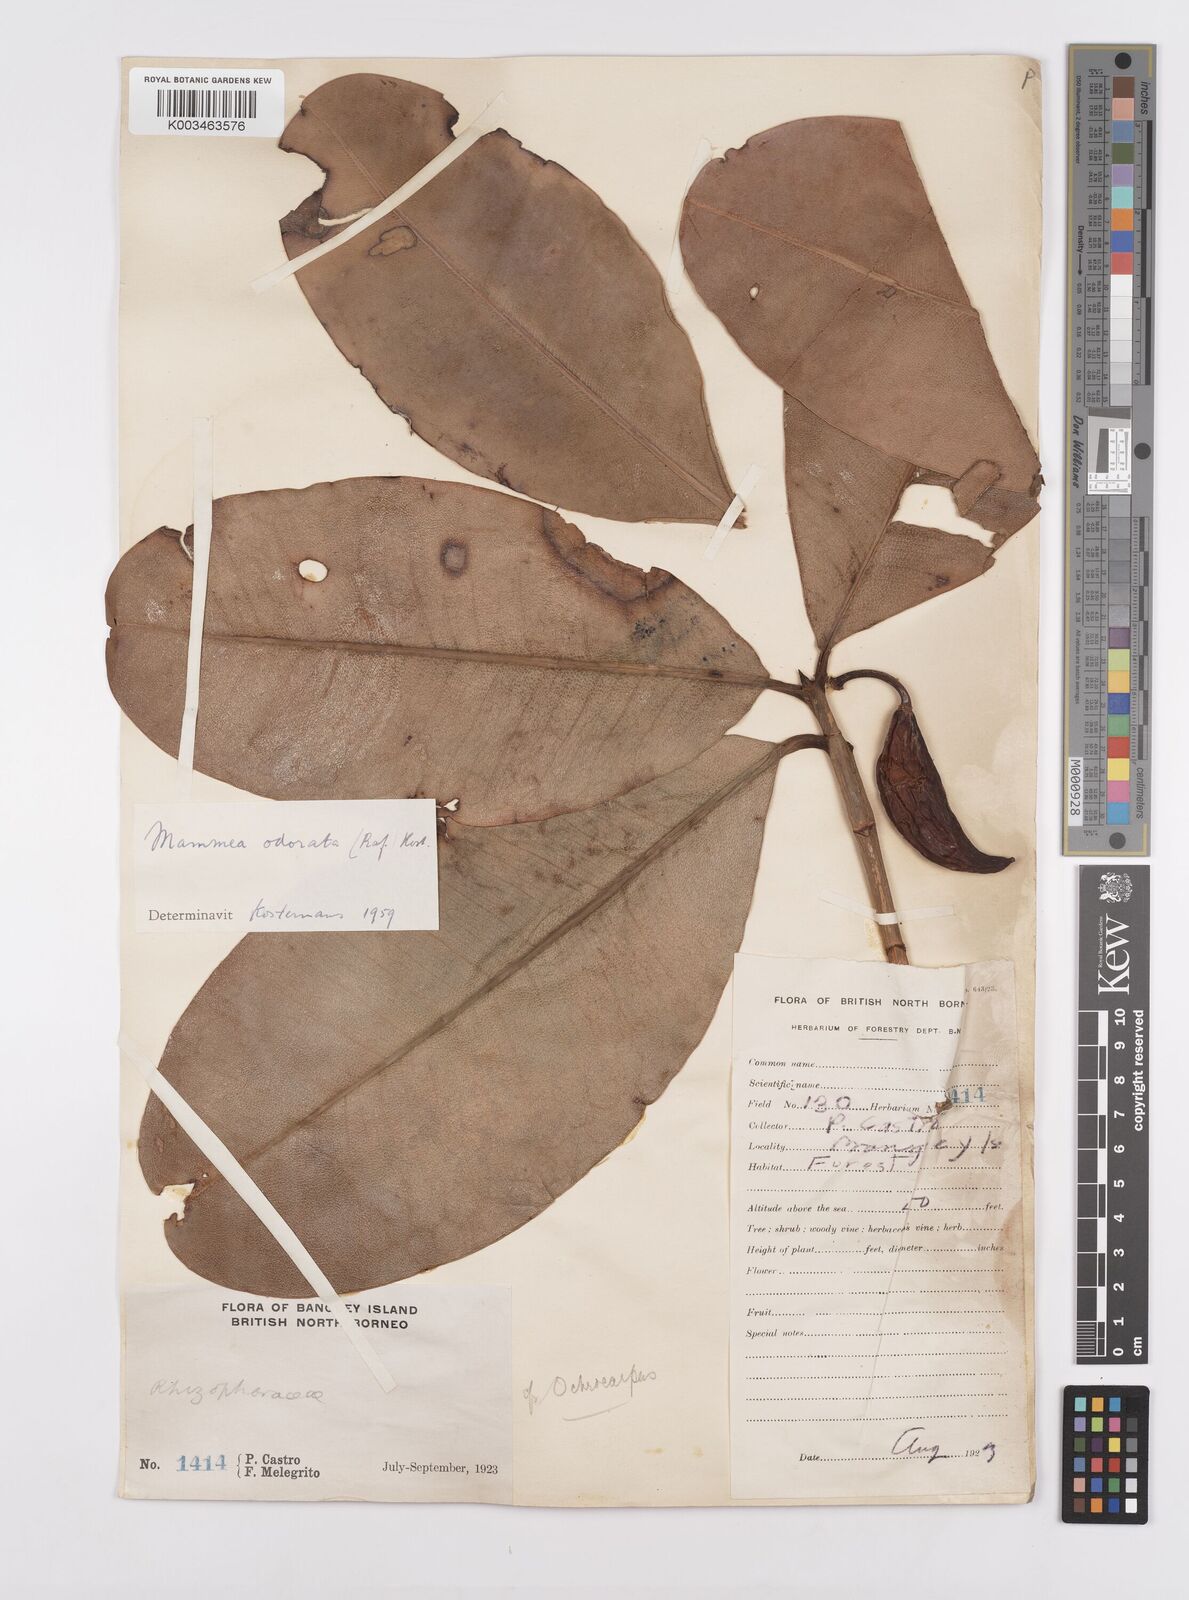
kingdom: Plantae
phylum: Tracheophyta
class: Magnoliopsida
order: Malpighiales
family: Calophyllaceae
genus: Mammea
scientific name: Mammea odorata
